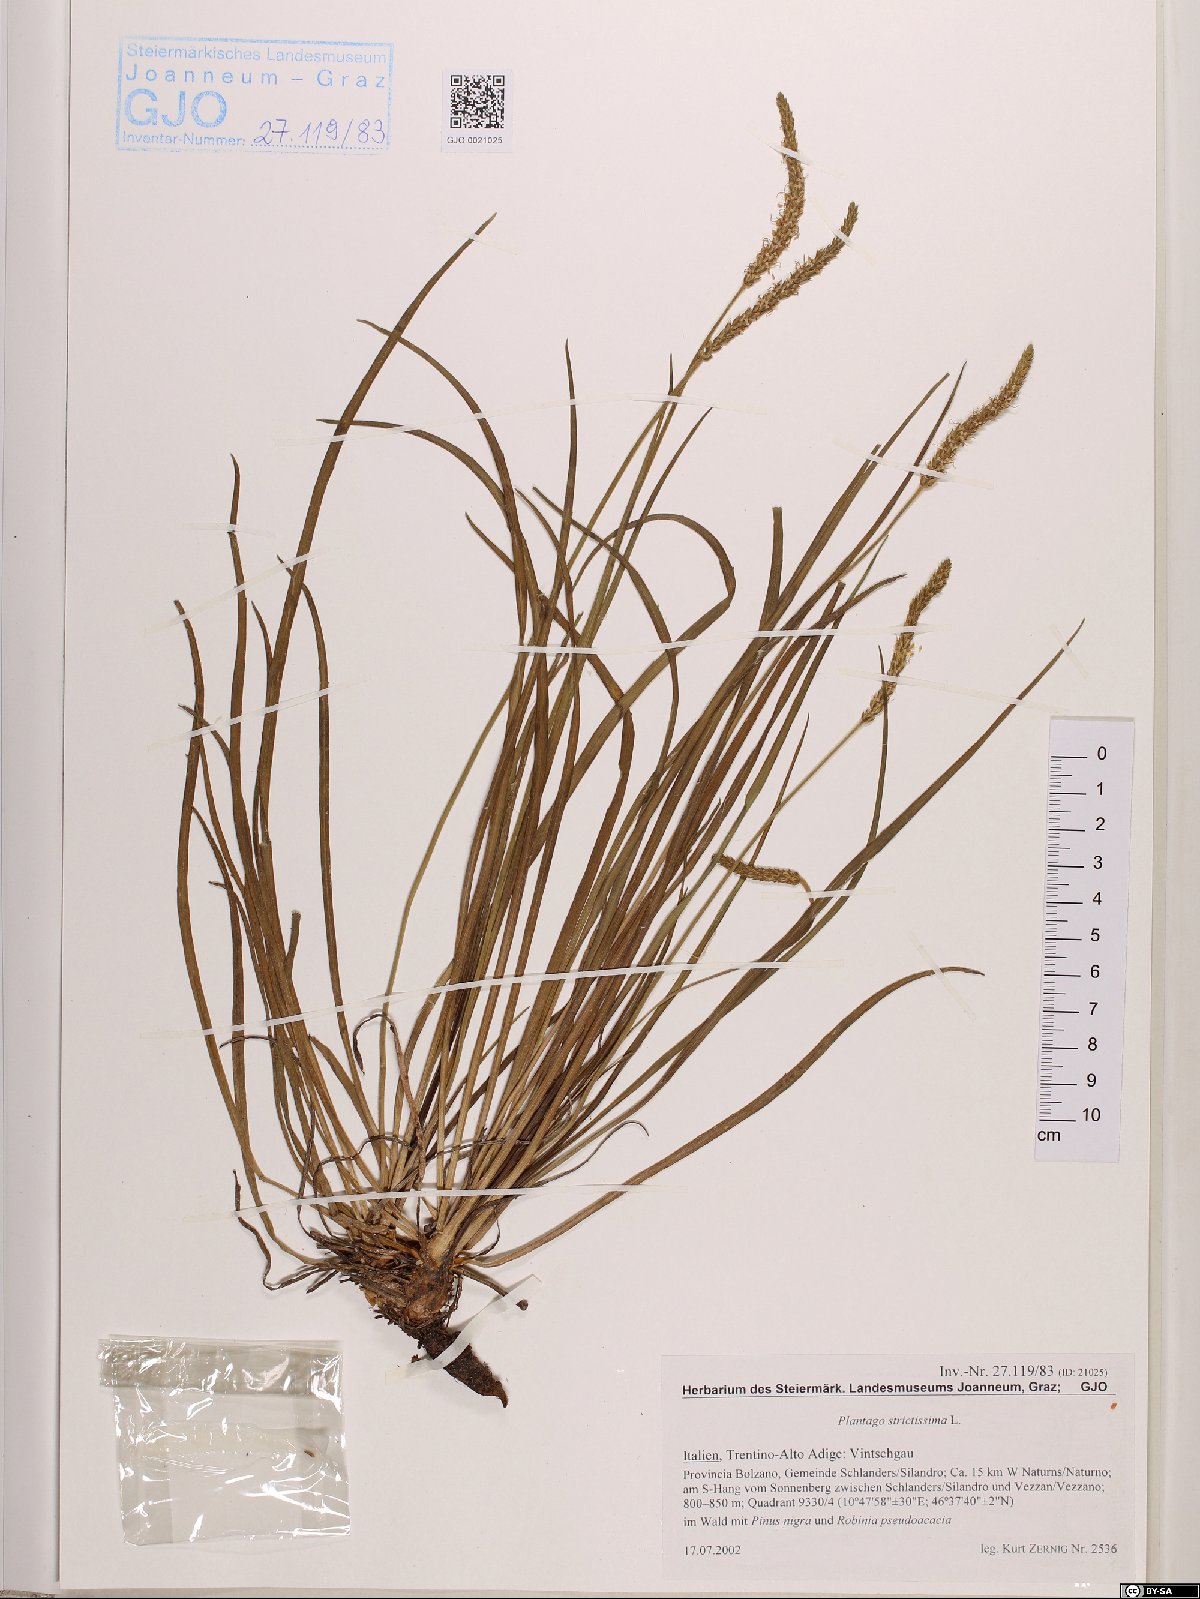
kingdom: Plantae
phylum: Tracheophyta
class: Magnoliopsida
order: Lamiales
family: Plantaginaceae
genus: Plantago
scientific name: Plantago strictissima
